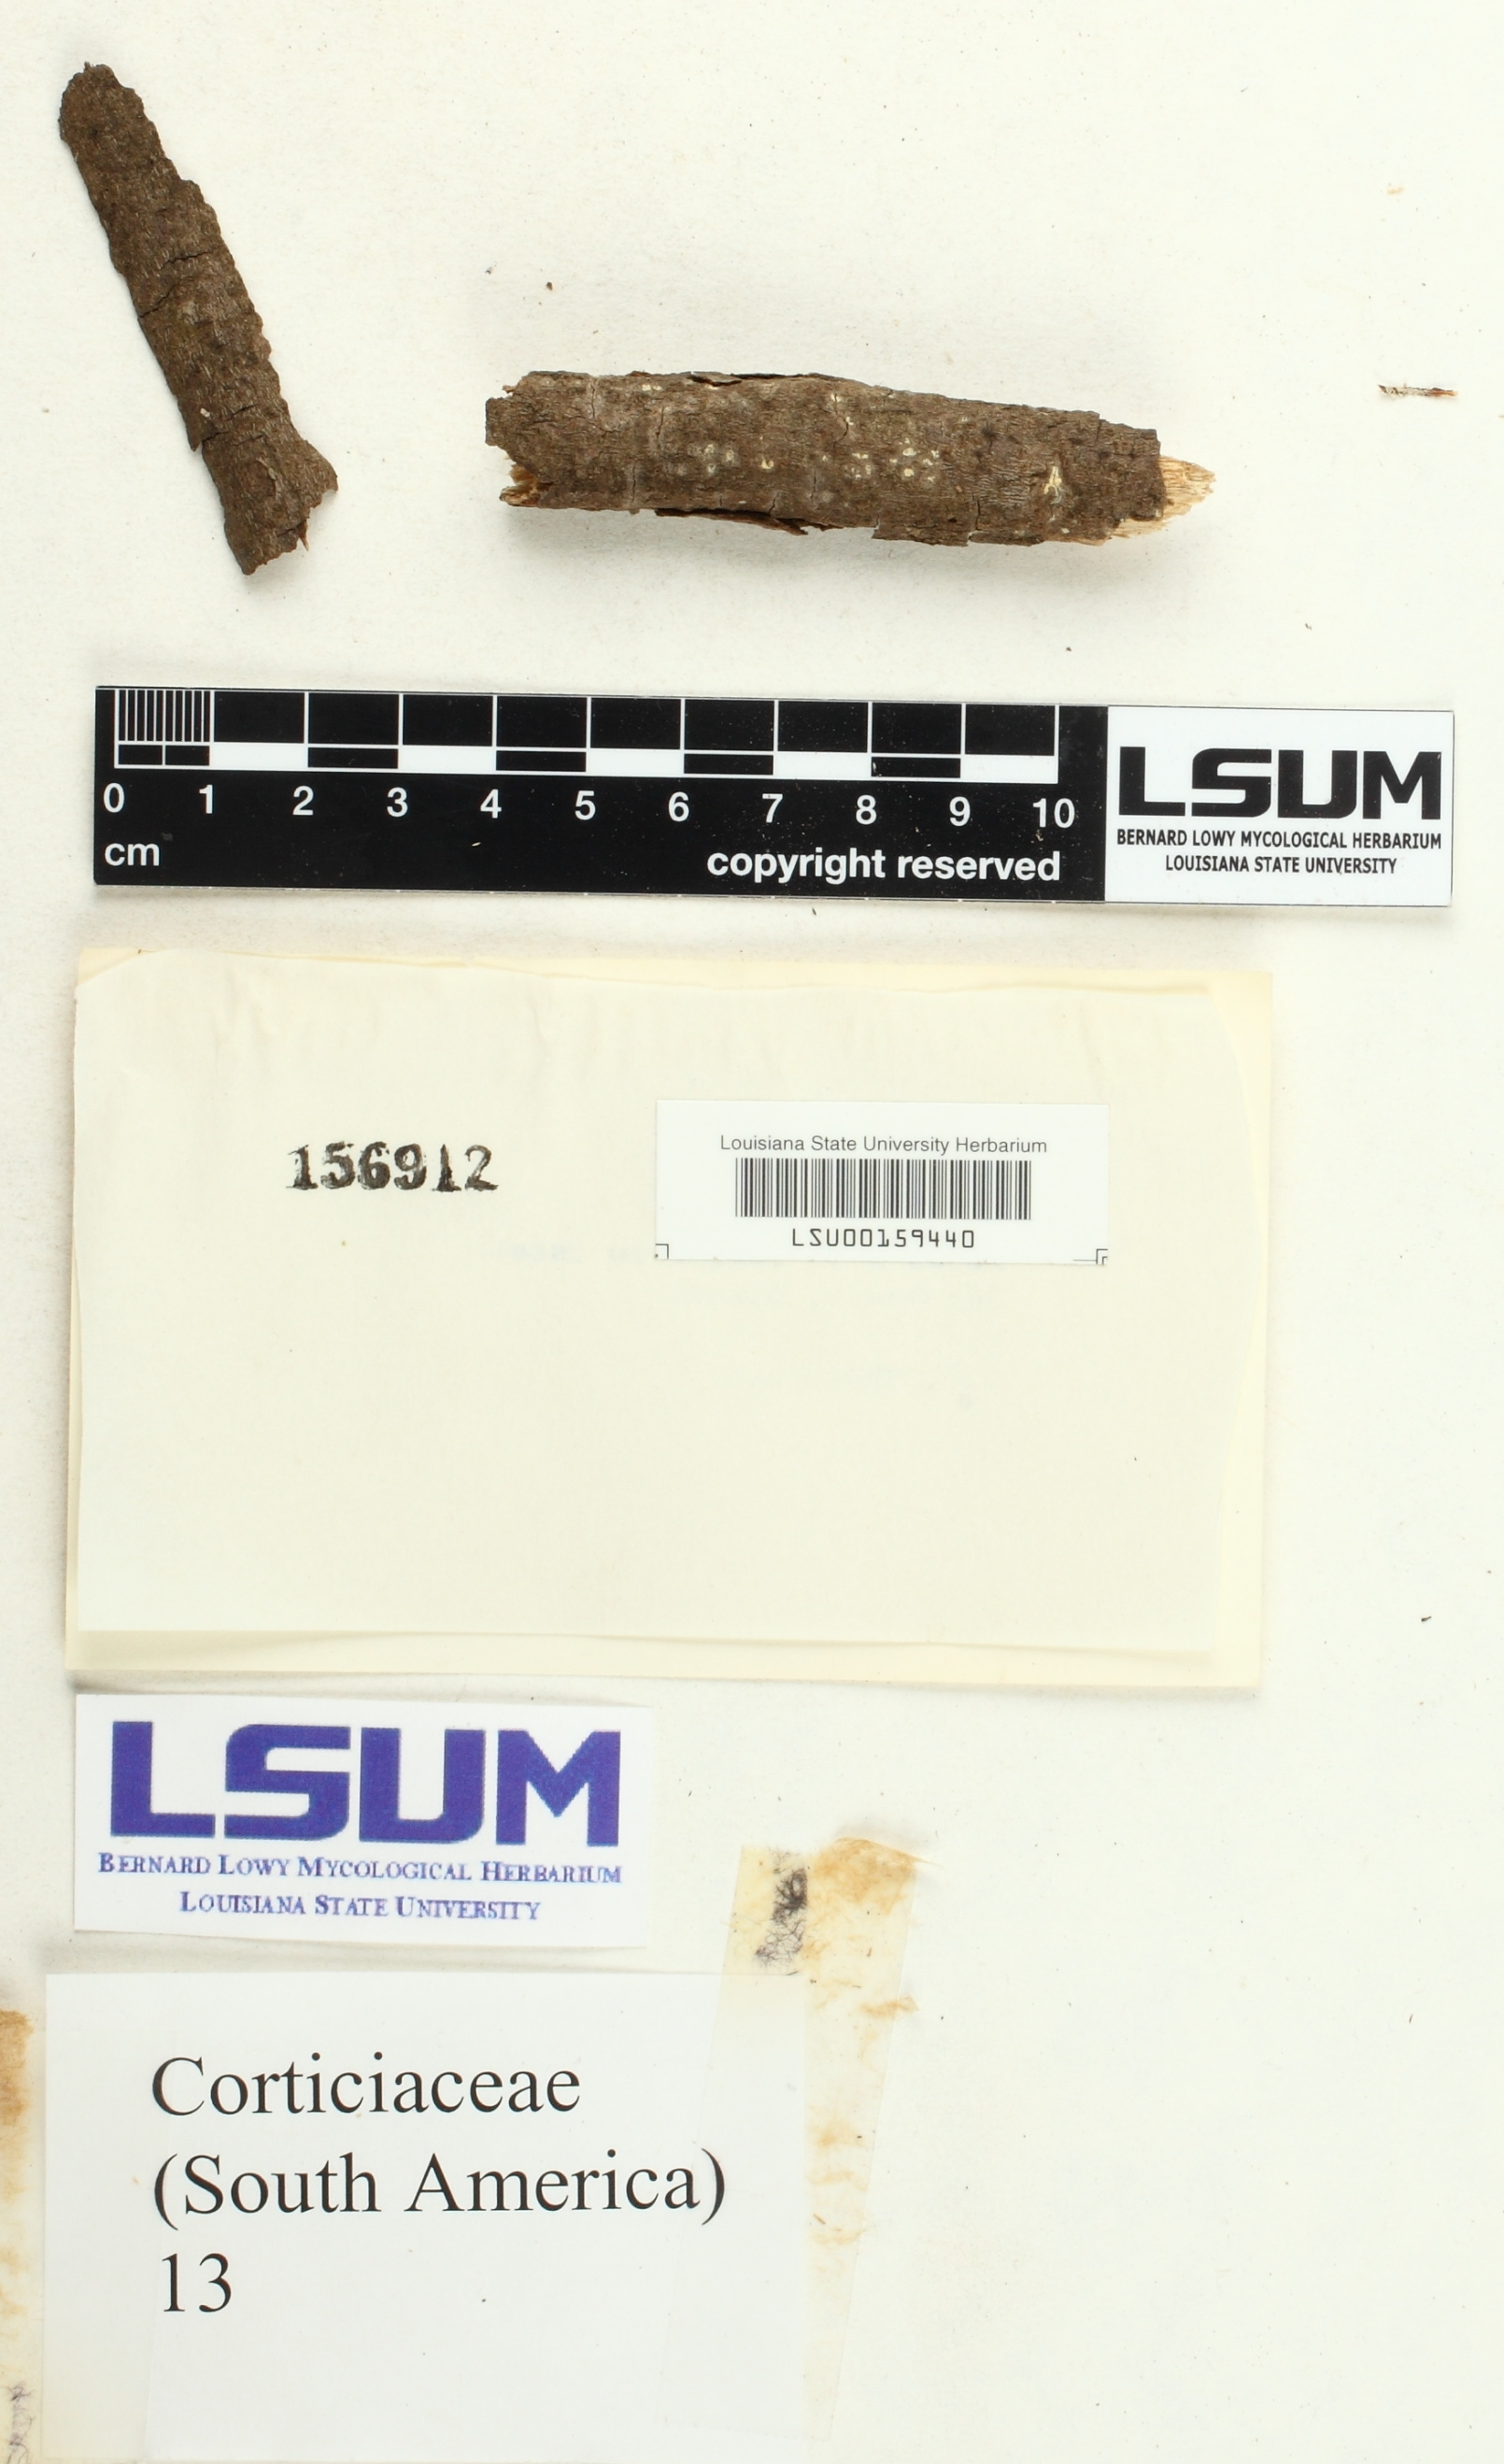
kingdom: Fungi
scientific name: Fungi
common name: Fungi
